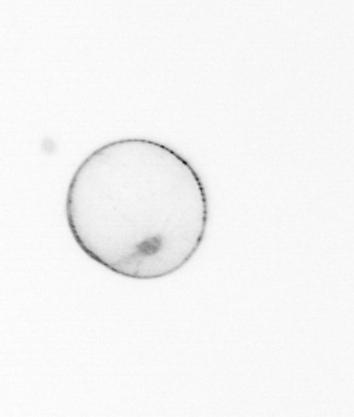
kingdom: Chromista
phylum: Myzozoa
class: Dinophyceae
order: Noctilucales
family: Noctilucaceae
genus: Noctiluca
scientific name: Noctiluca scintillans
